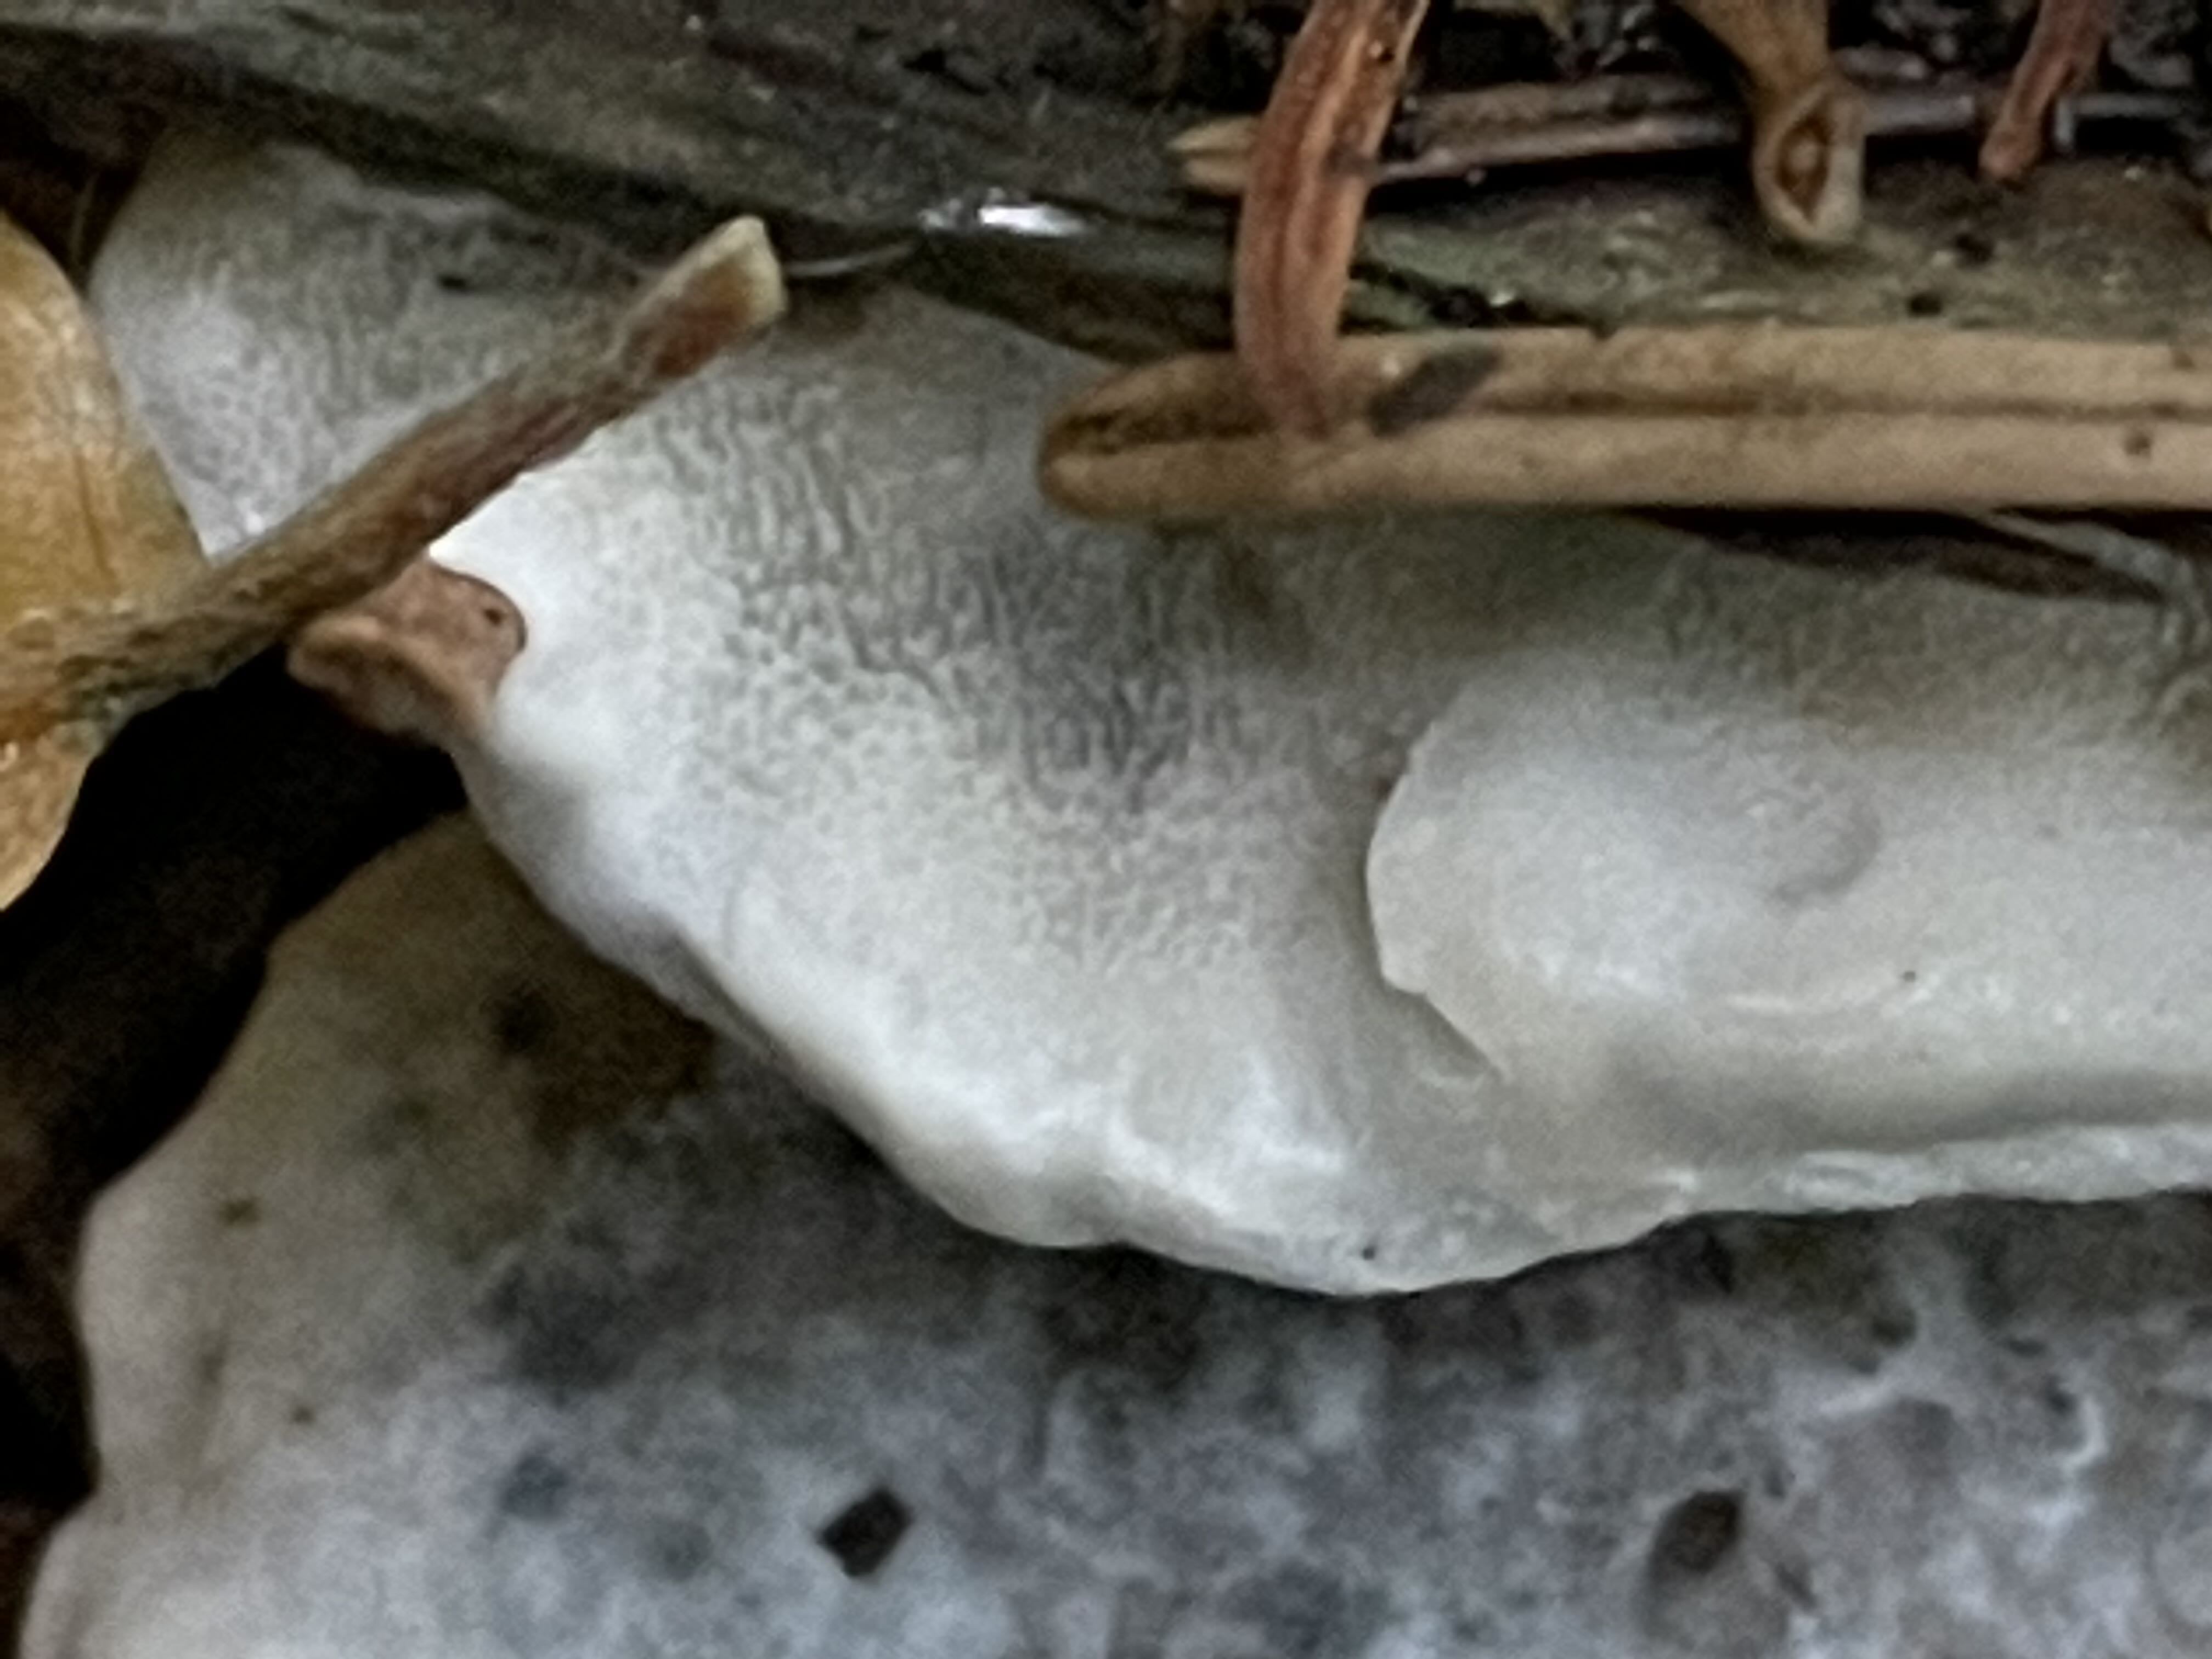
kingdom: Fungi
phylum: Basidiomycota
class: Agaricomycetes
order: Polyporales
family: Polyporaceae
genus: Cyanosporus
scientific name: Cyanosporus caesius
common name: blålig kødporesvamp
